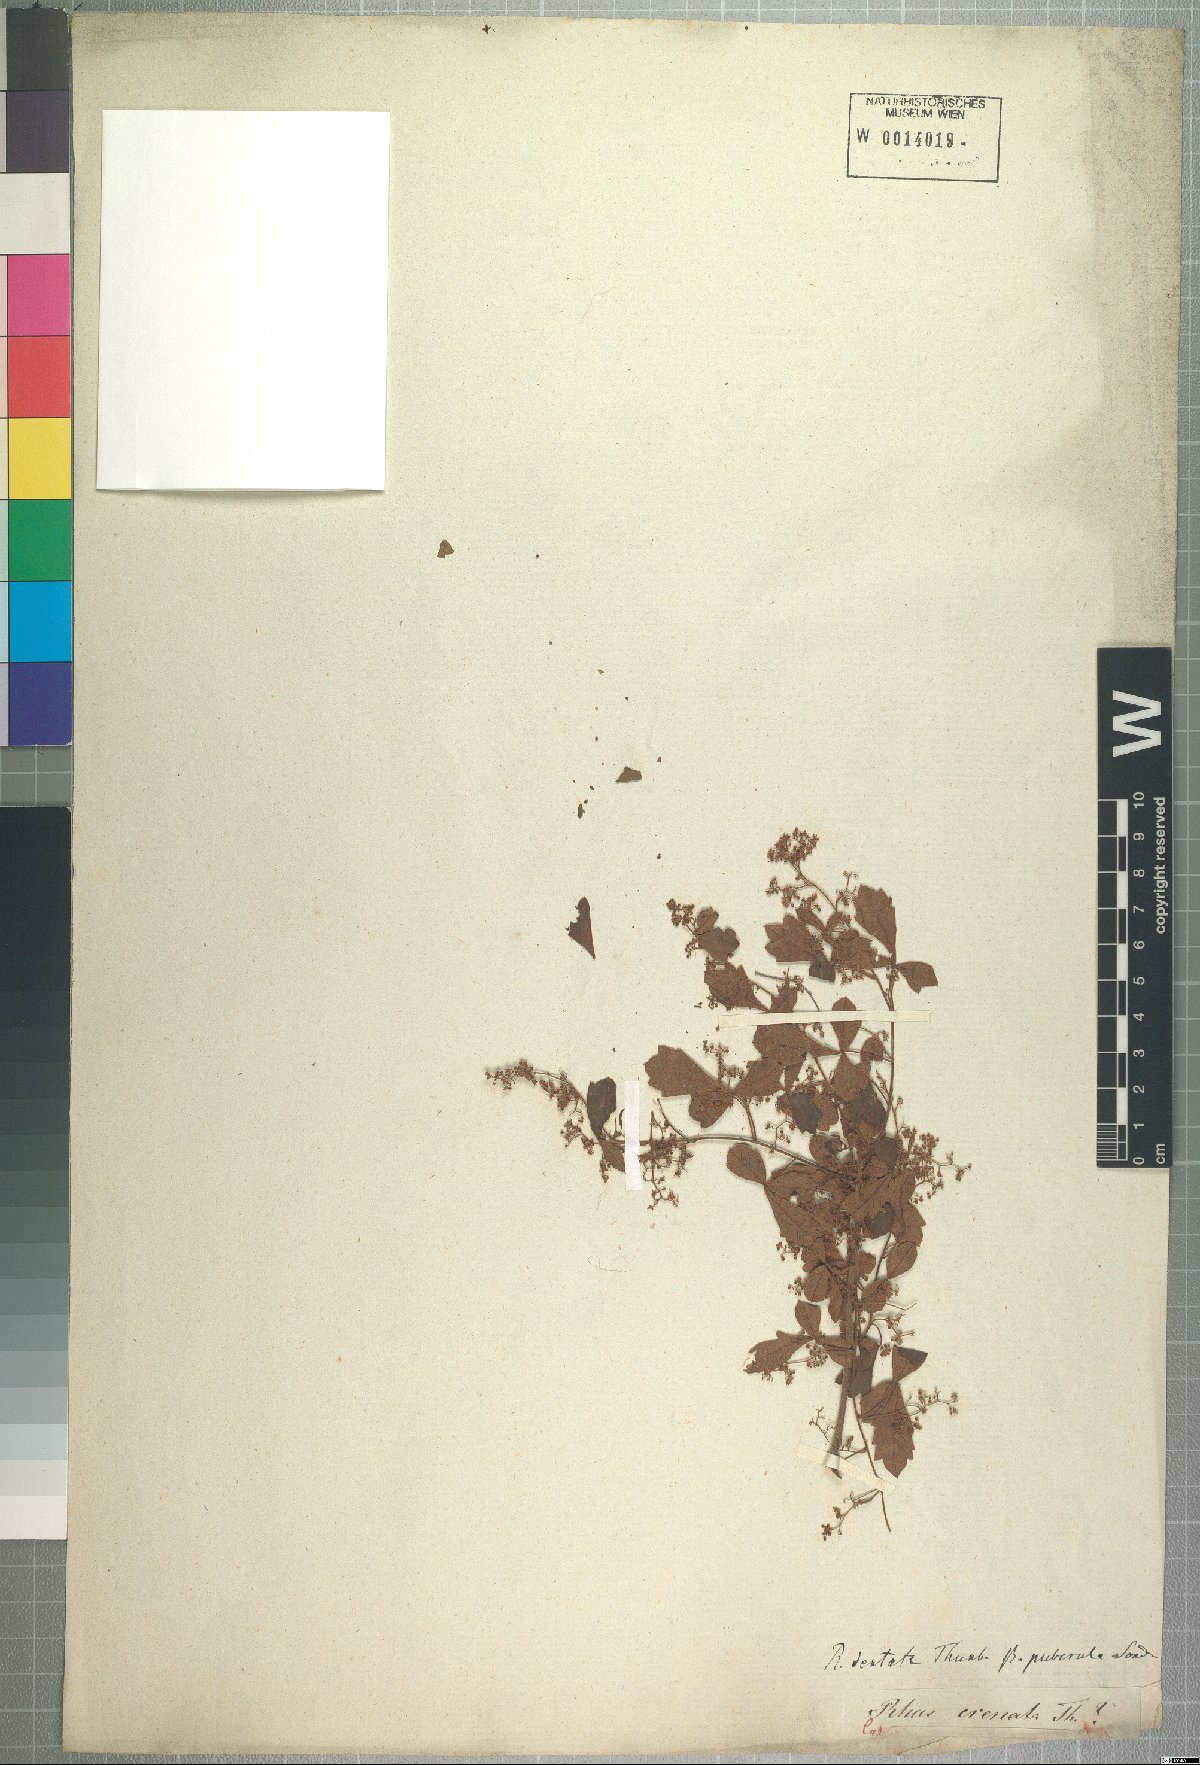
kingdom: Plantae
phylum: Tracheophyta
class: Magnoliopsida
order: Sapindales
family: Anacardiaceae
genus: Searsia
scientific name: Searsia dentata
